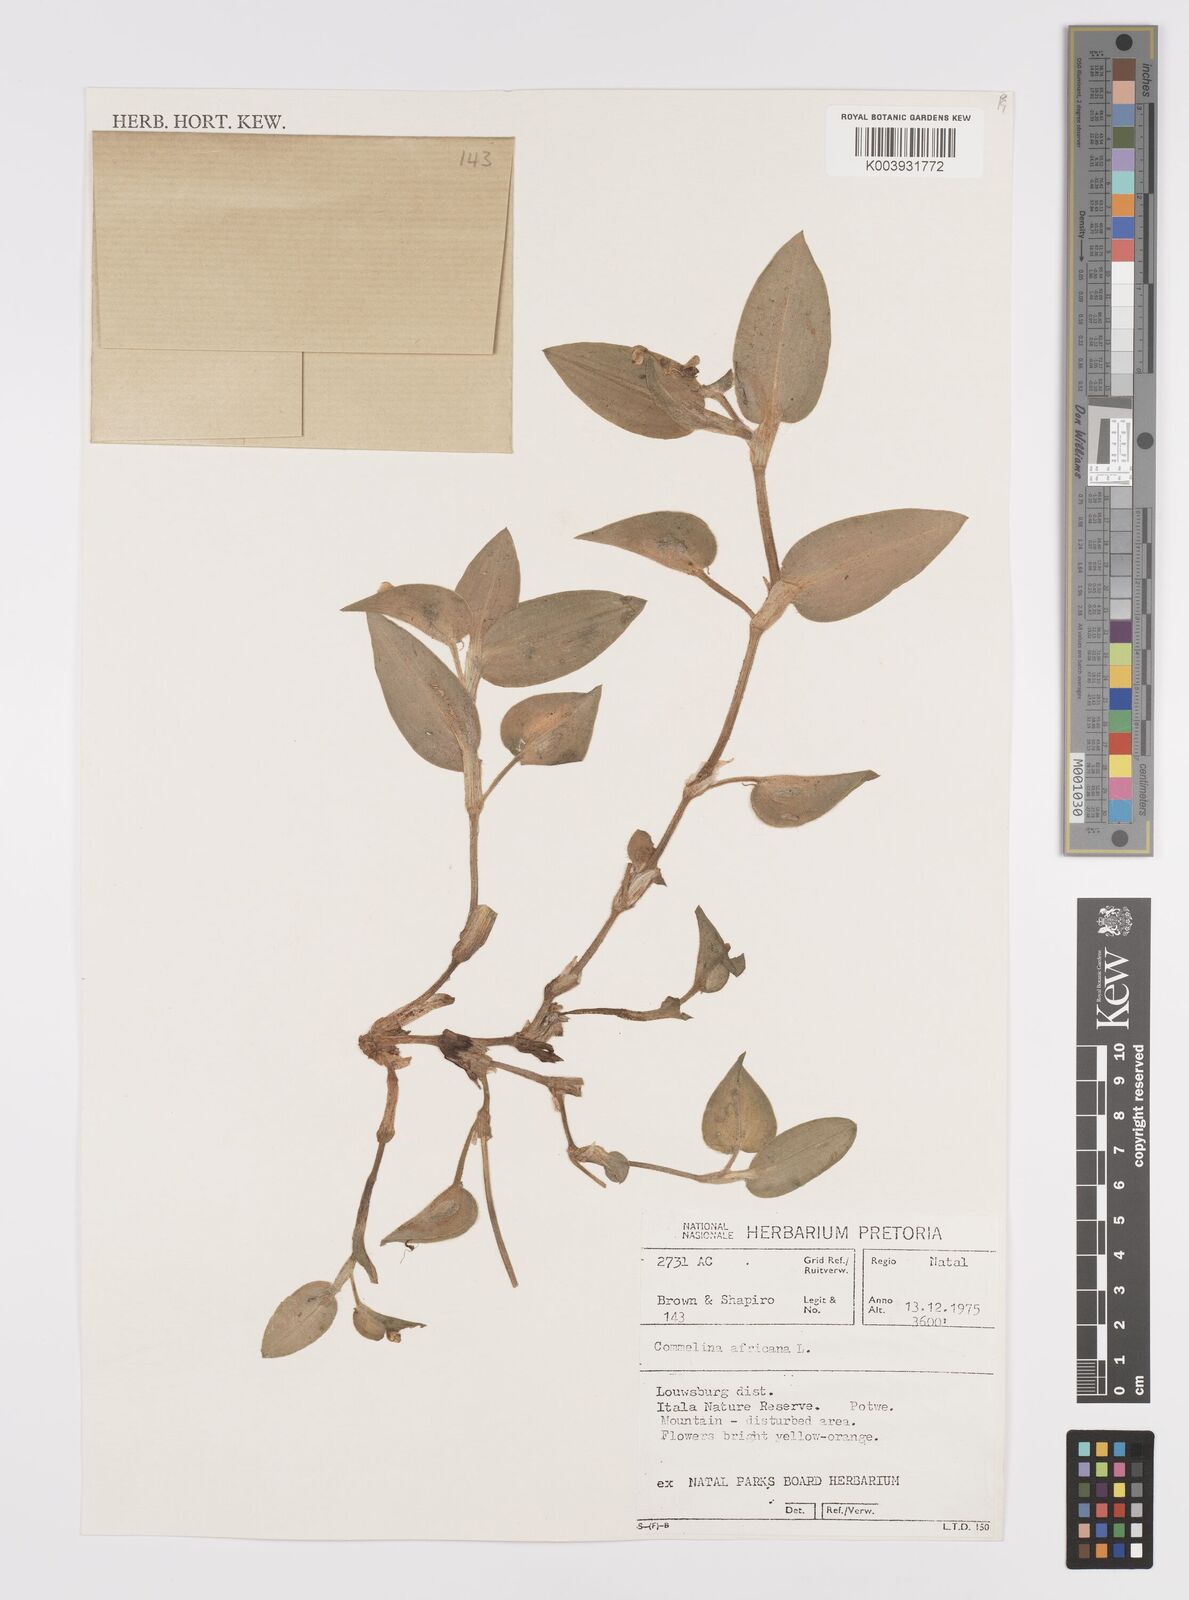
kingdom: Plantae
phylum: Tracheophyta
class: Liliopsida
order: Commelinales
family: Commelinaceae
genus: Commelina
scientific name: Commelina africana
